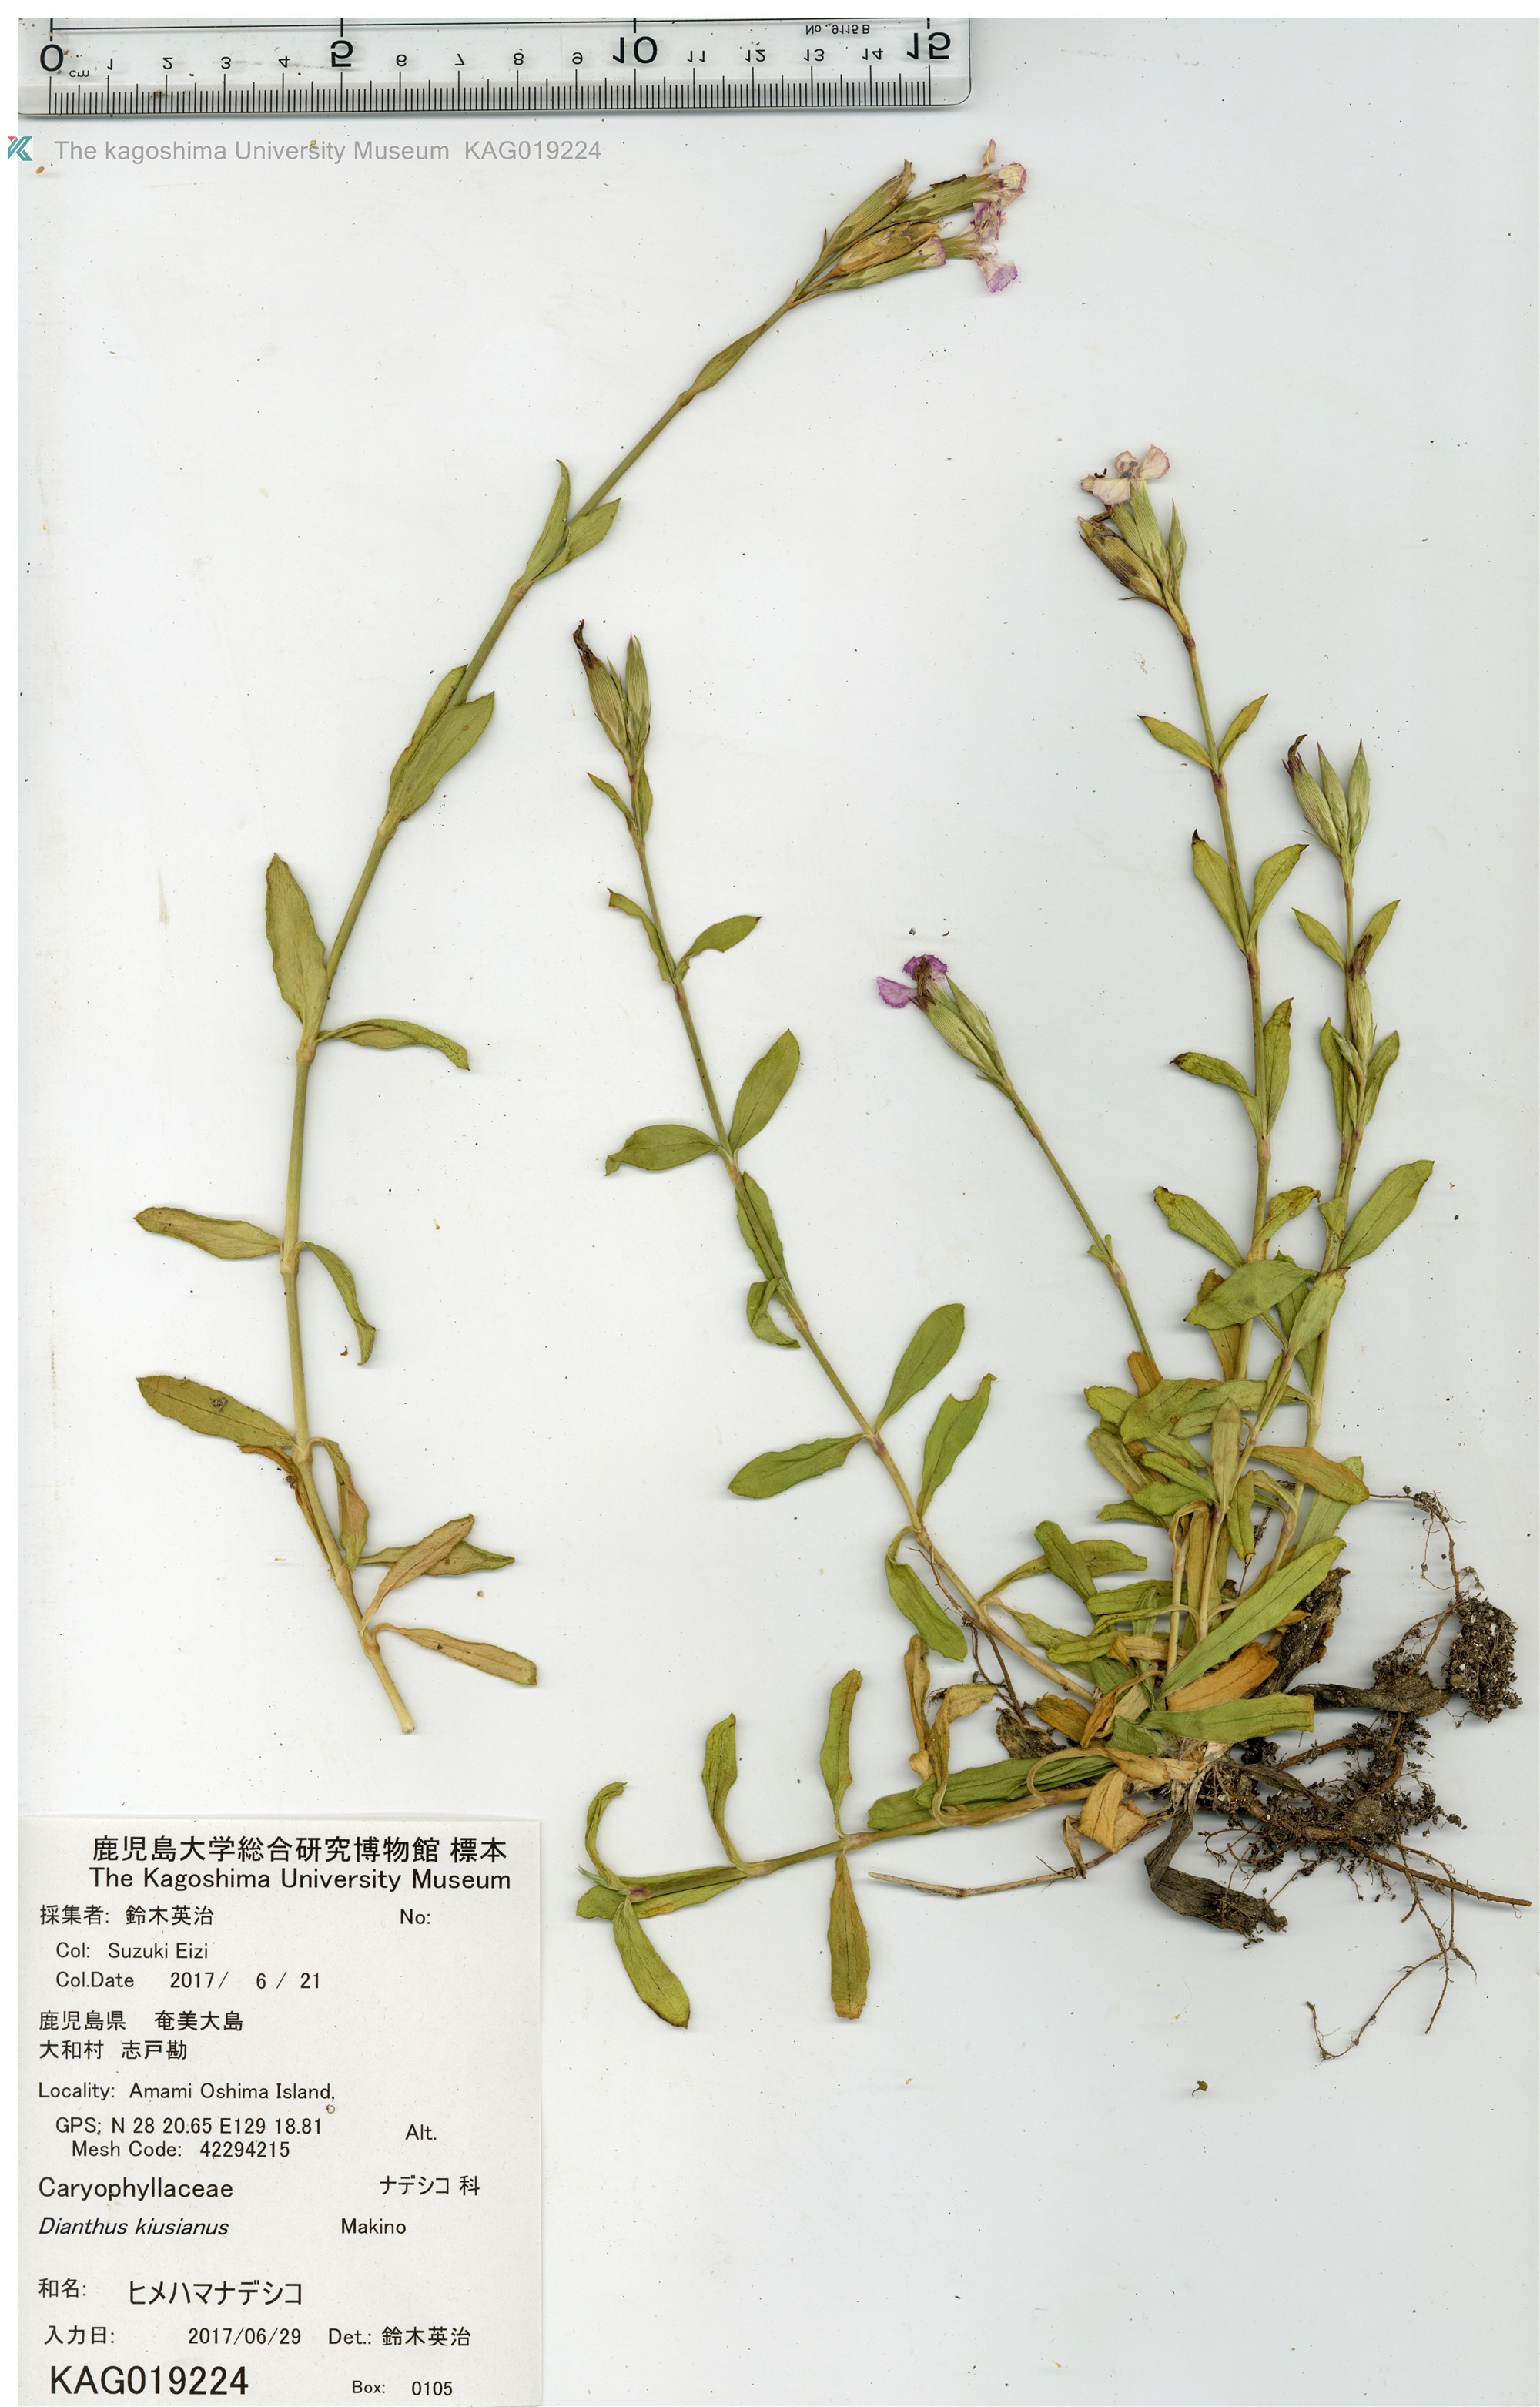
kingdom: Plantae
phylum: Tracheophyta
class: Magnoliopsida
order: Caryophyllales
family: Caryophyllaceae
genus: Dianthus
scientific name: Dianthus kiusianus
